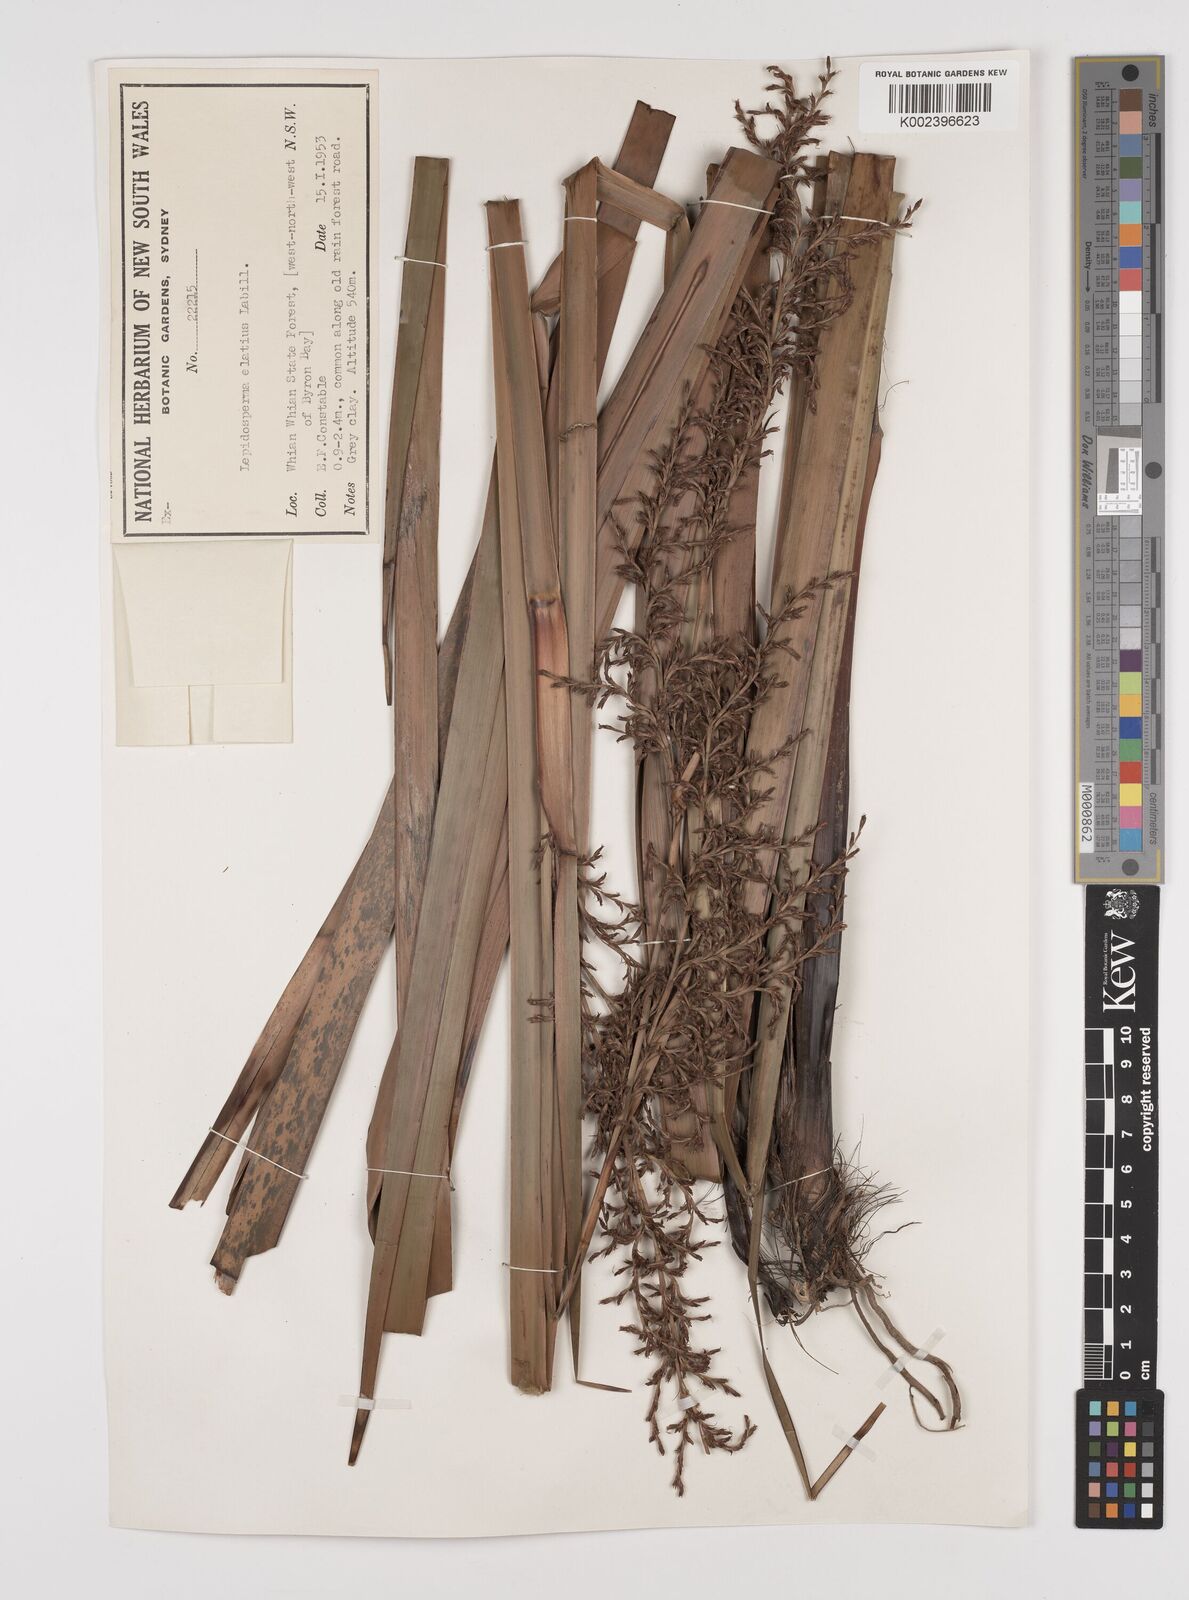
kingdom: Plantae
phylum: Tracheophyta
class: Liliopsida
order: Poales
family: Cyperaceae
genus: Lepidosperma
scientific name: Lepidosperma elatius
